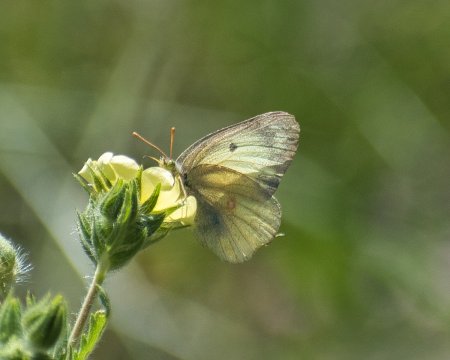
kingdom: Animalia
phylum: Arthropoda
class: Insecta
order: Lepidoptera
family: Pieridae
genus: Colias
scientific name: Colias philodice
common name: Clouded Sulphur
